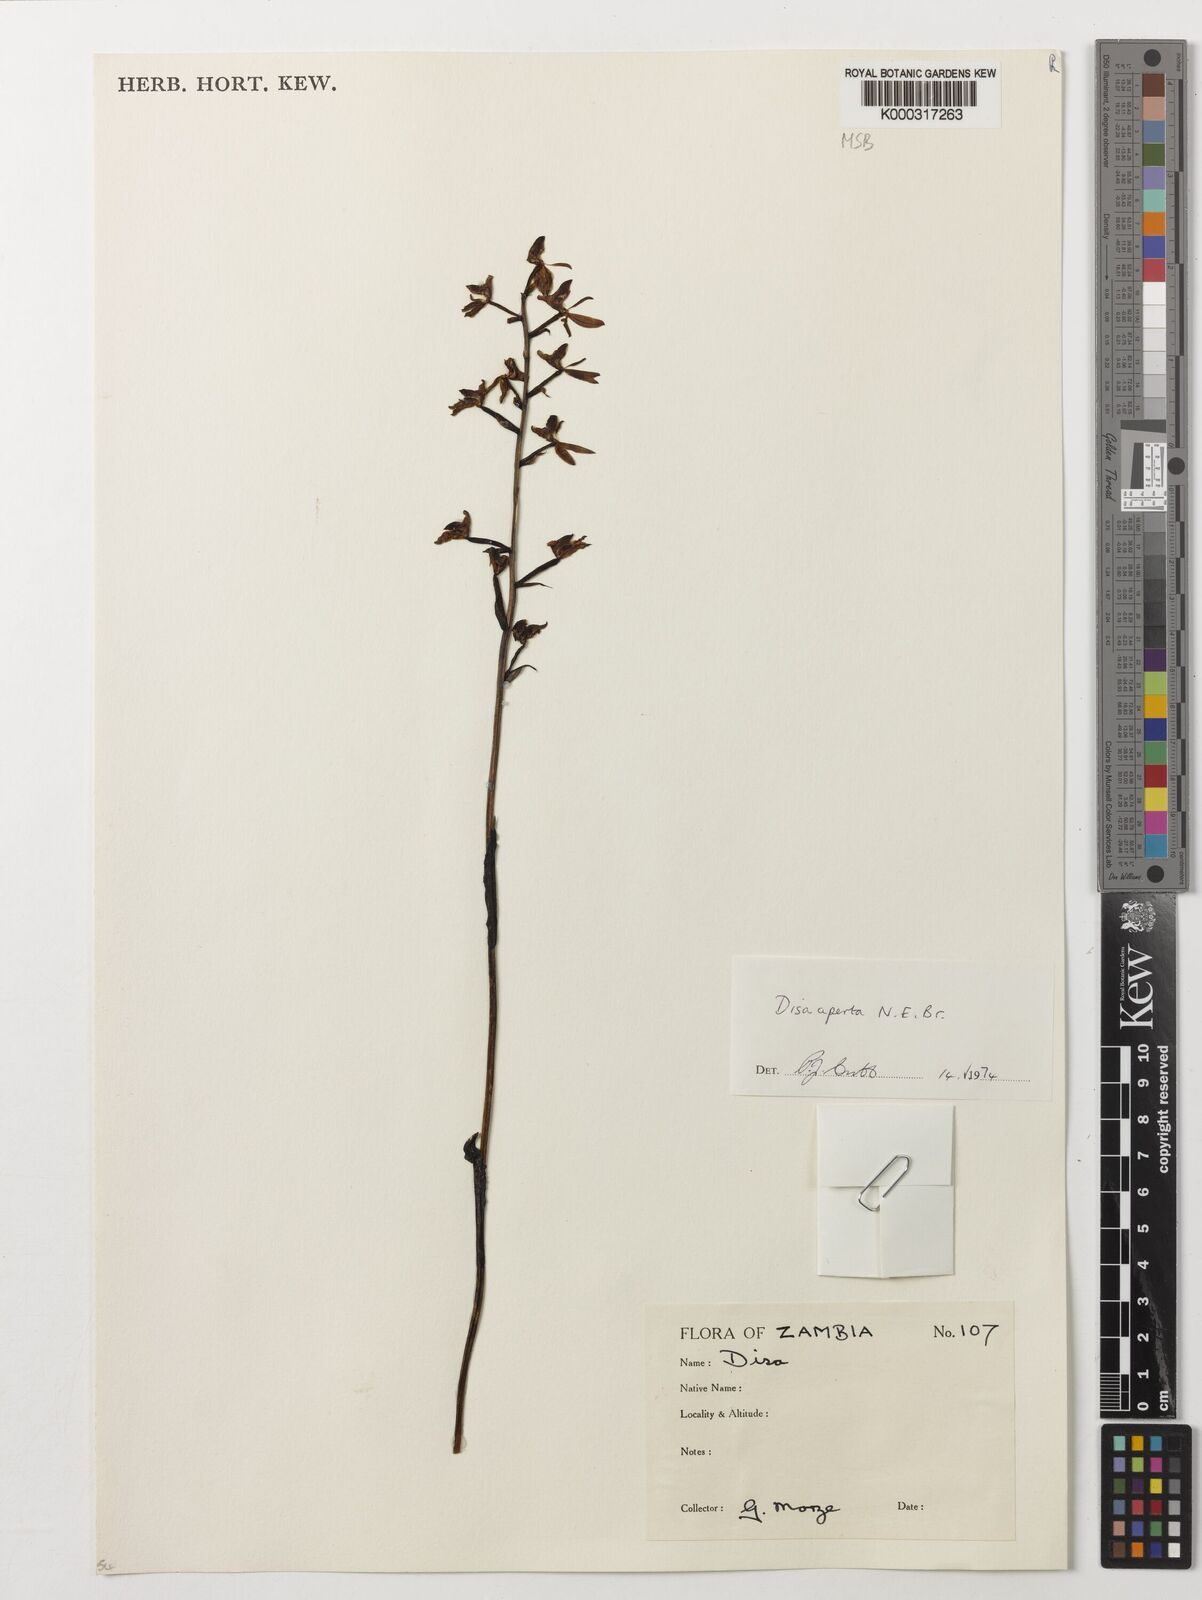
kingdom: Plantae
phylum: Tracheophyta
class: Liliopsida
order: Asparagales
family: Orchidaceae
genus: Disa
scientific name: Disa aperta
